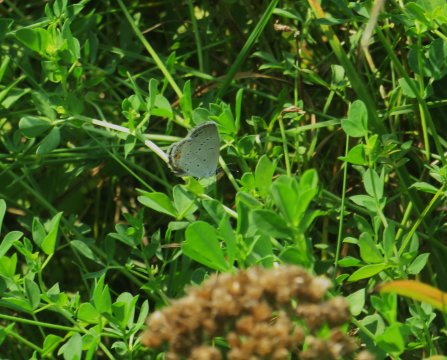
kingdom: Animalia
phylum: Arthropoda
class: Insecta
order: Lepidoptera
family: Lycaenidae
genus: Elkalyce
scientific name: Elkalyce comyntas
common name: Eastern Tailed-Blue
